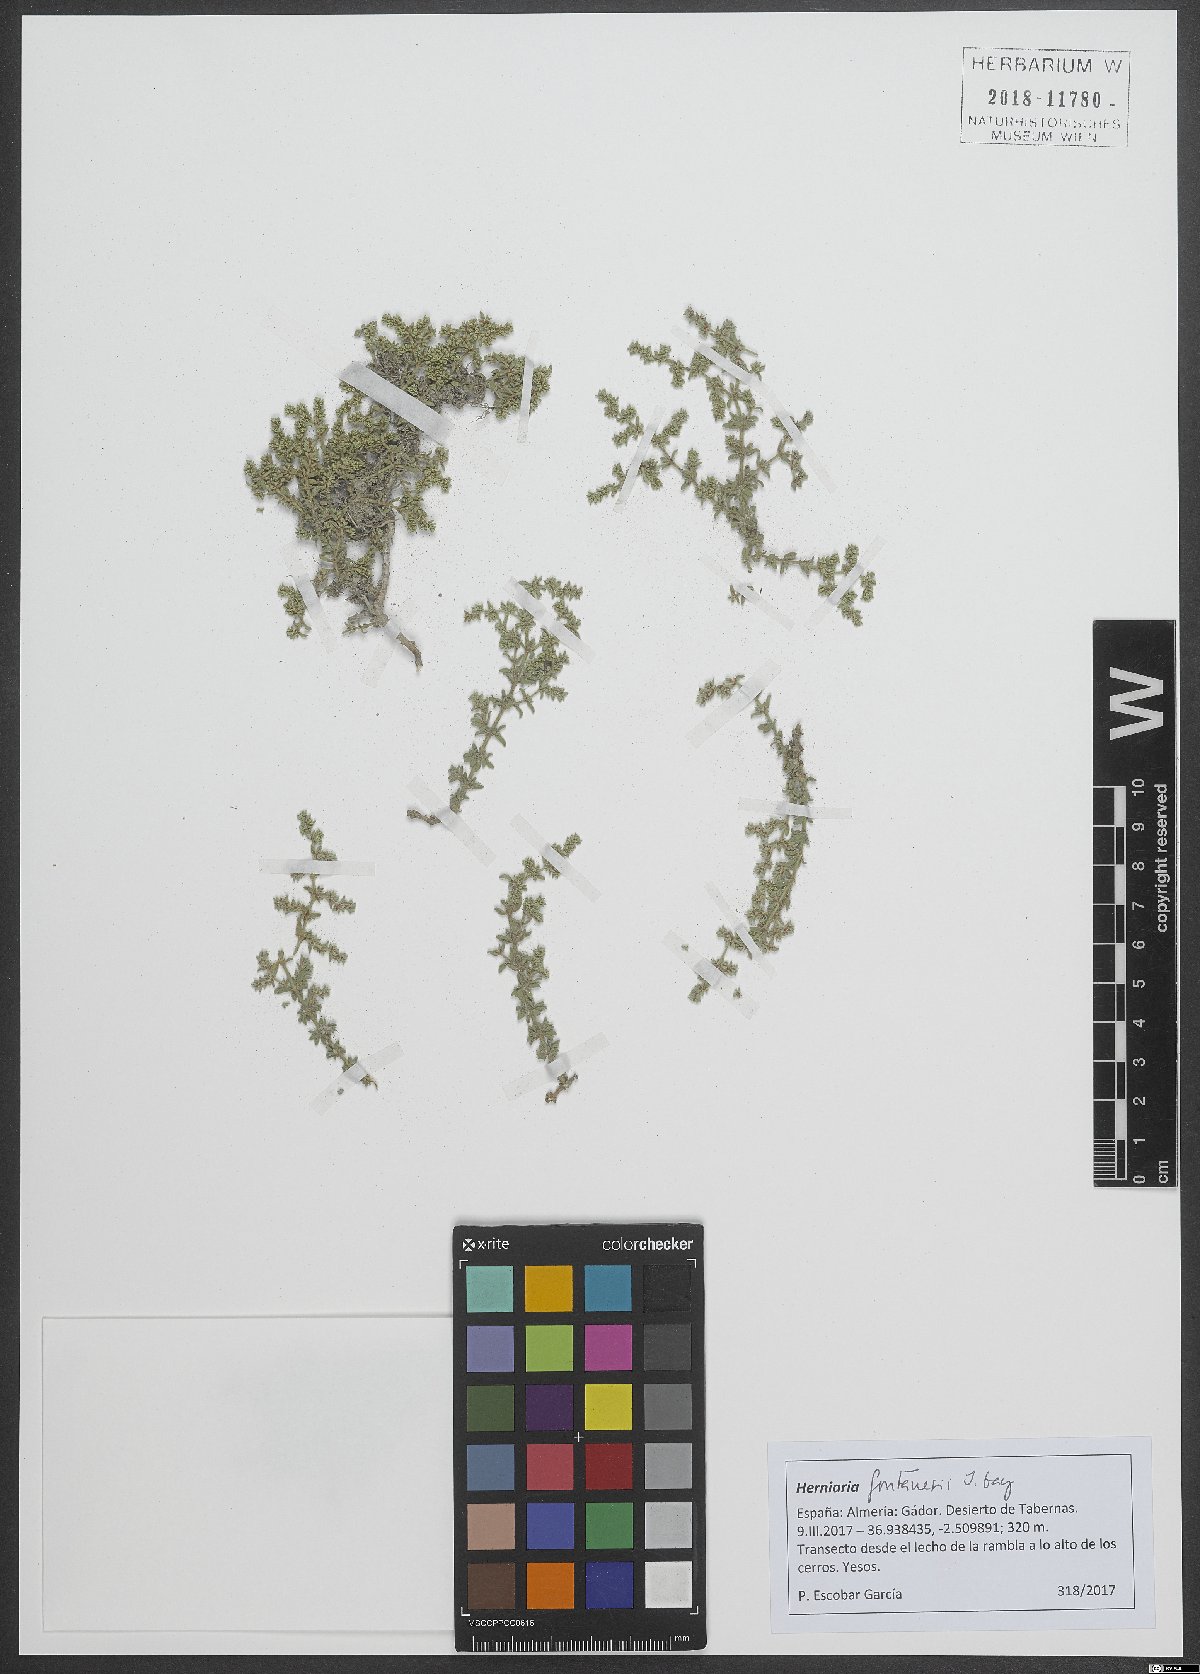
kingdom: Plantae
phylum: Tracheophyta
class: Magnoliopsida
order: Caryophyllales
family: Caryophyllaceae
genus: Herniaria
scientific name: Herniaria fontanesii
